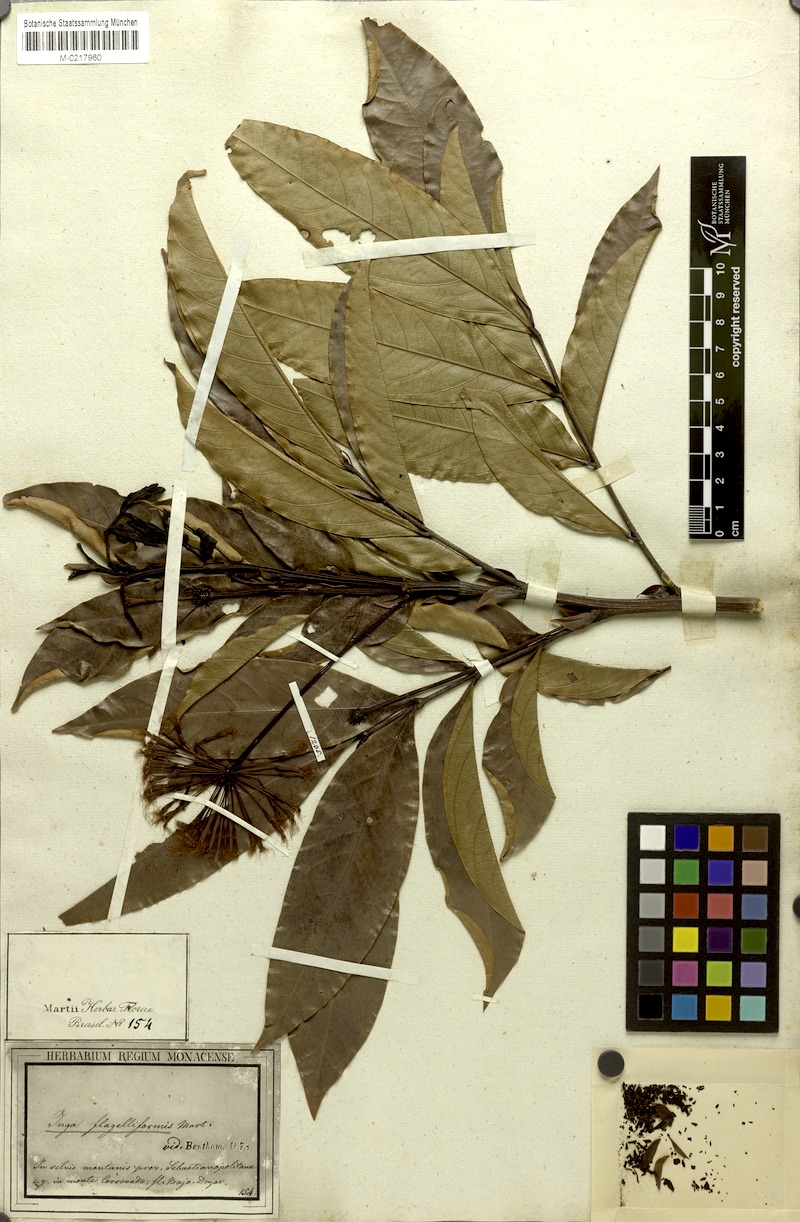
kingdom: Plantae
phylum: Tracheophyta
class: Magnoliopsida
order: Fabales
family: Fabaceae
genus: Inga
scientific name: Inga flagelliformis
